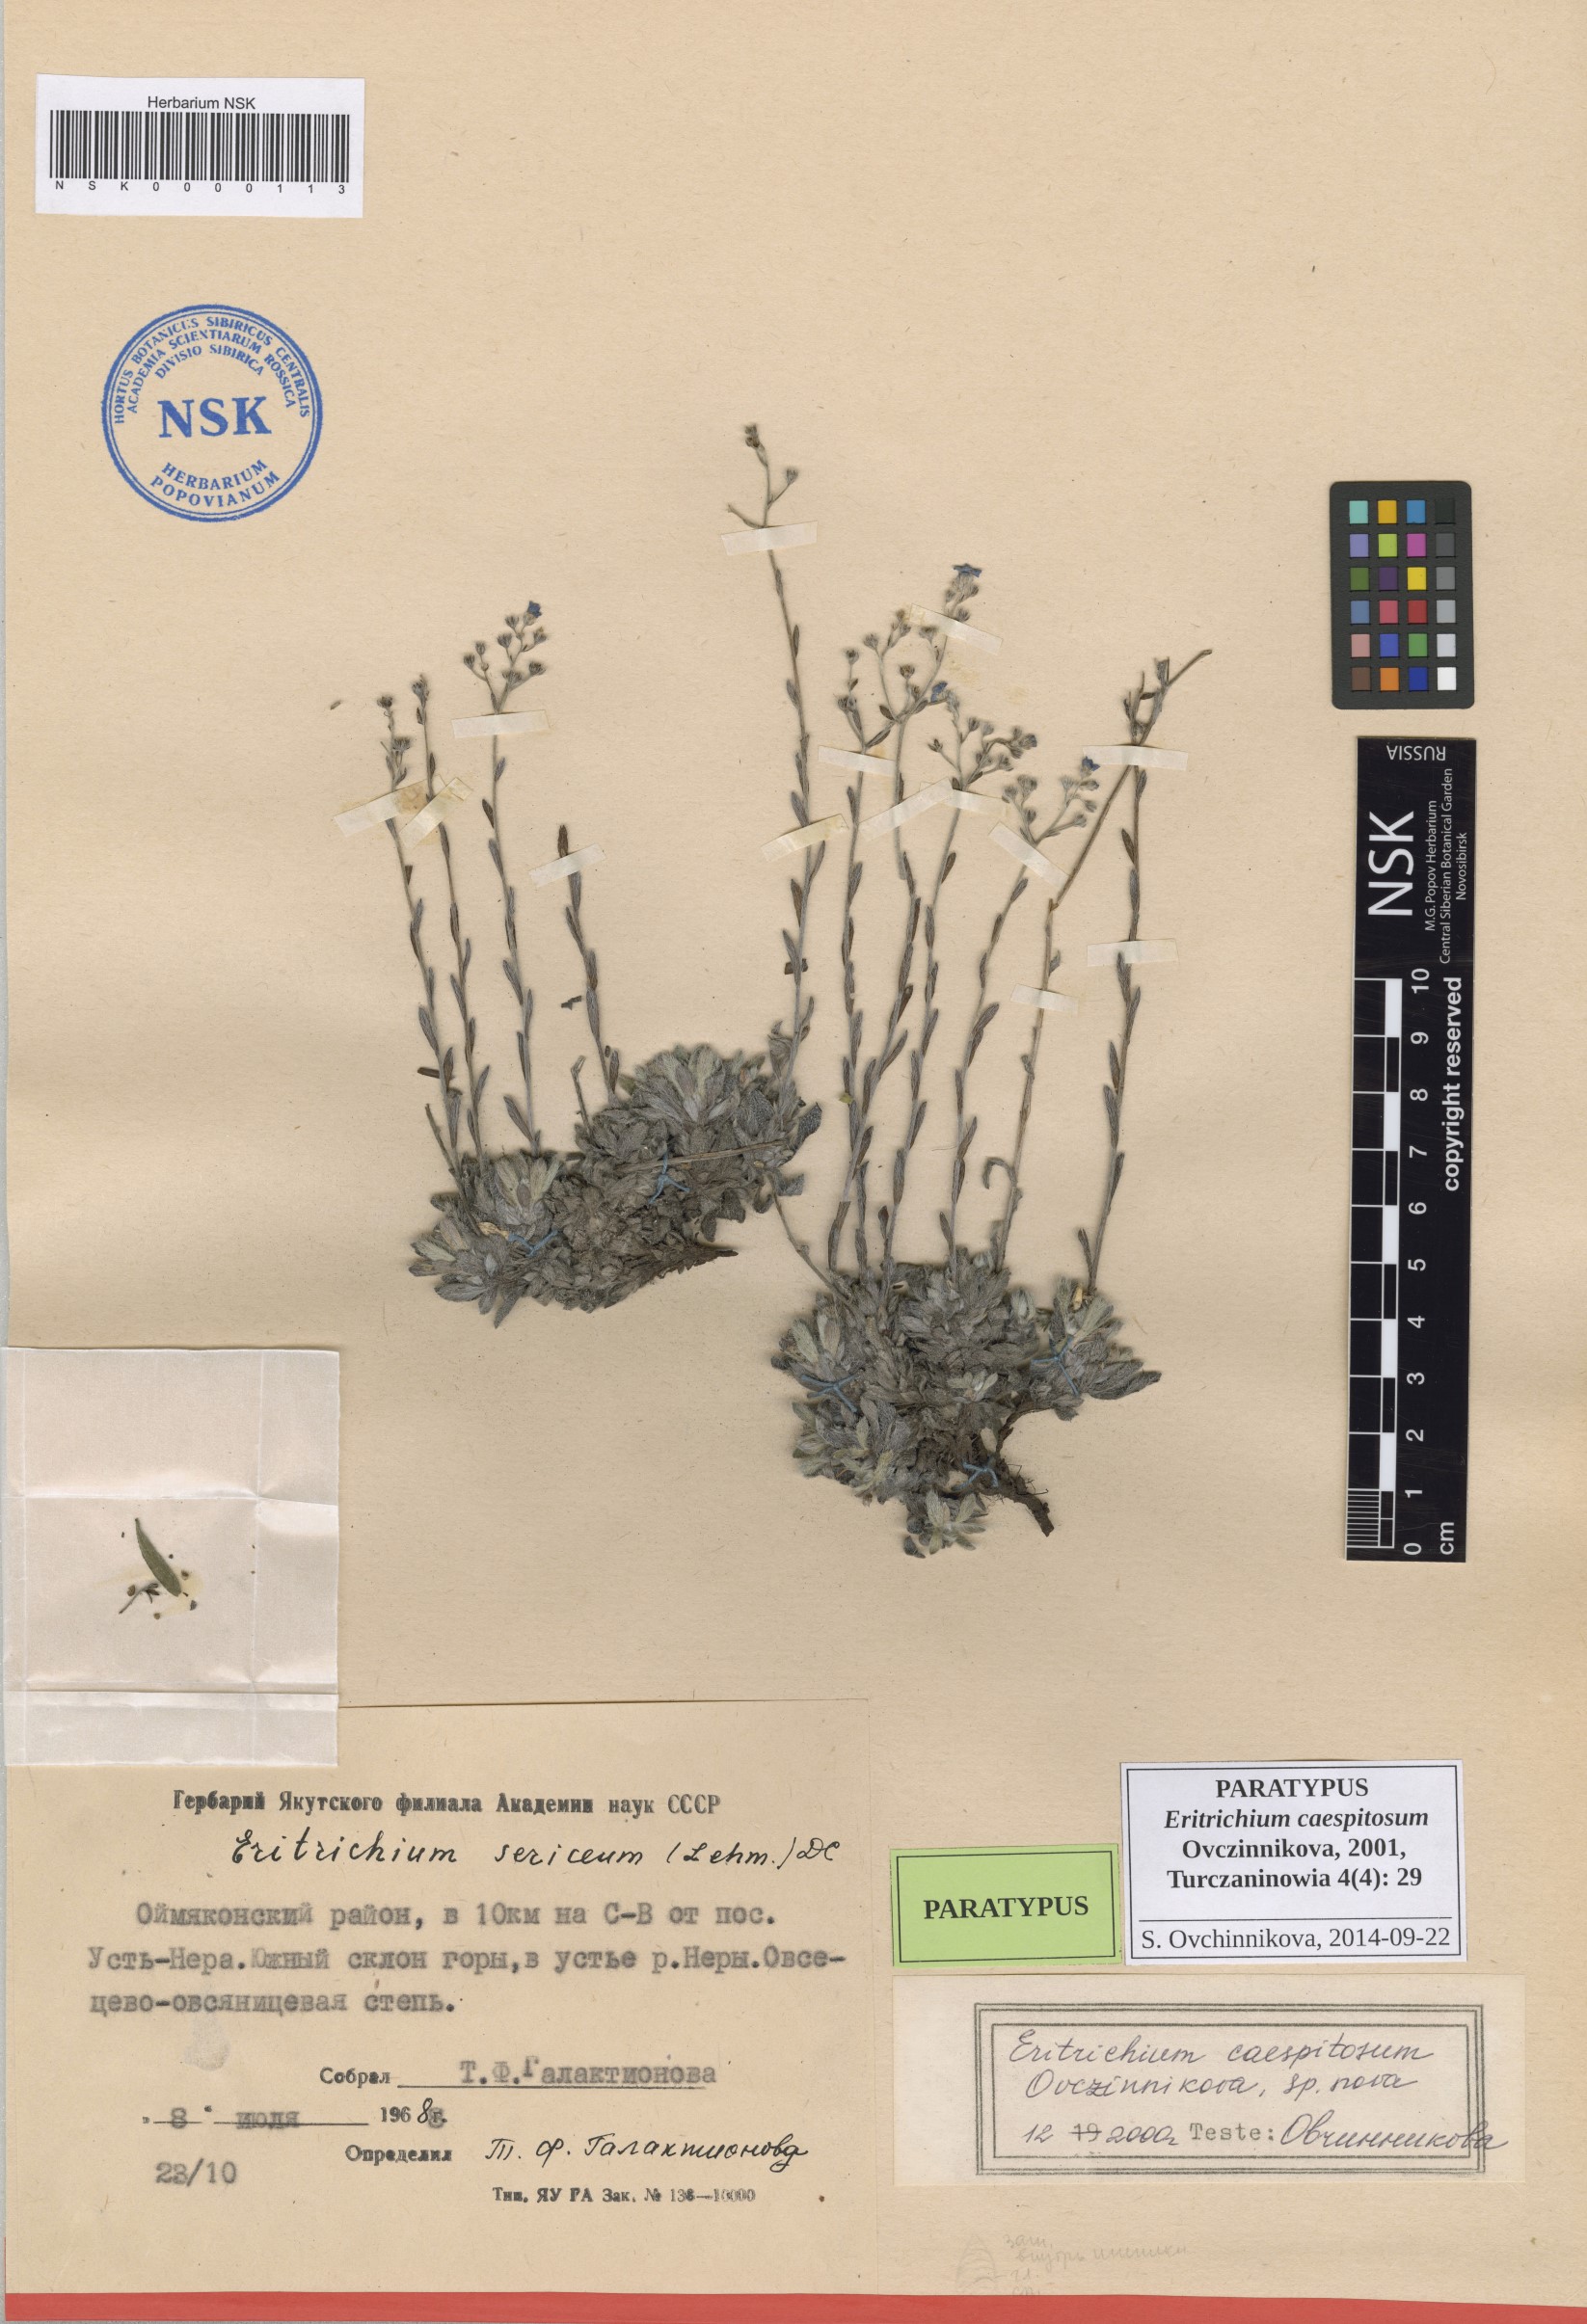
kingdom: Plantae
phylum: Tracheophyta
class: Magnoliopsida
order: Boraginales
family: Boraginaceae
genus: Eritrichium
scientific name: Eritrichium caespitosum
